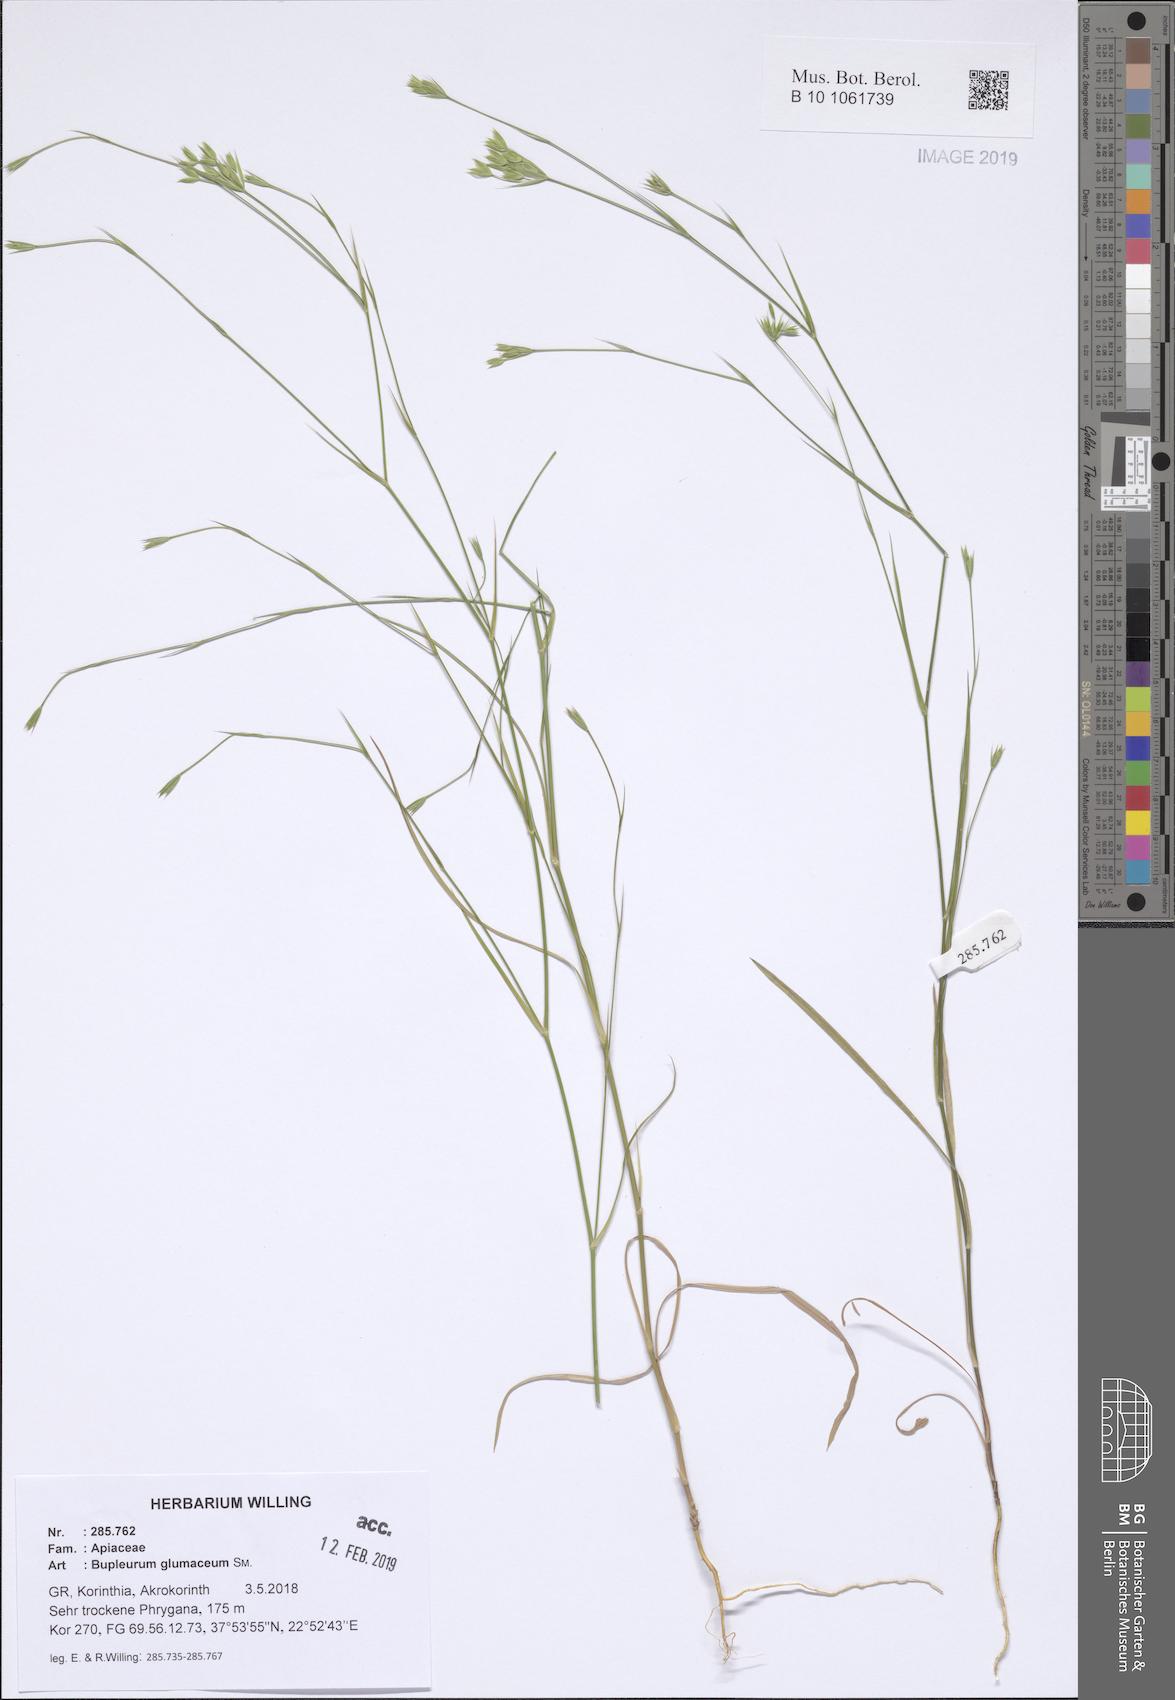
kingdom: Plantae
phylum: Tracheophyta
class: Magnoliopsida
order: Apiales
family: Apiaceae
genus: Bupleurum
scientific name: Bupleurum glumaceum
